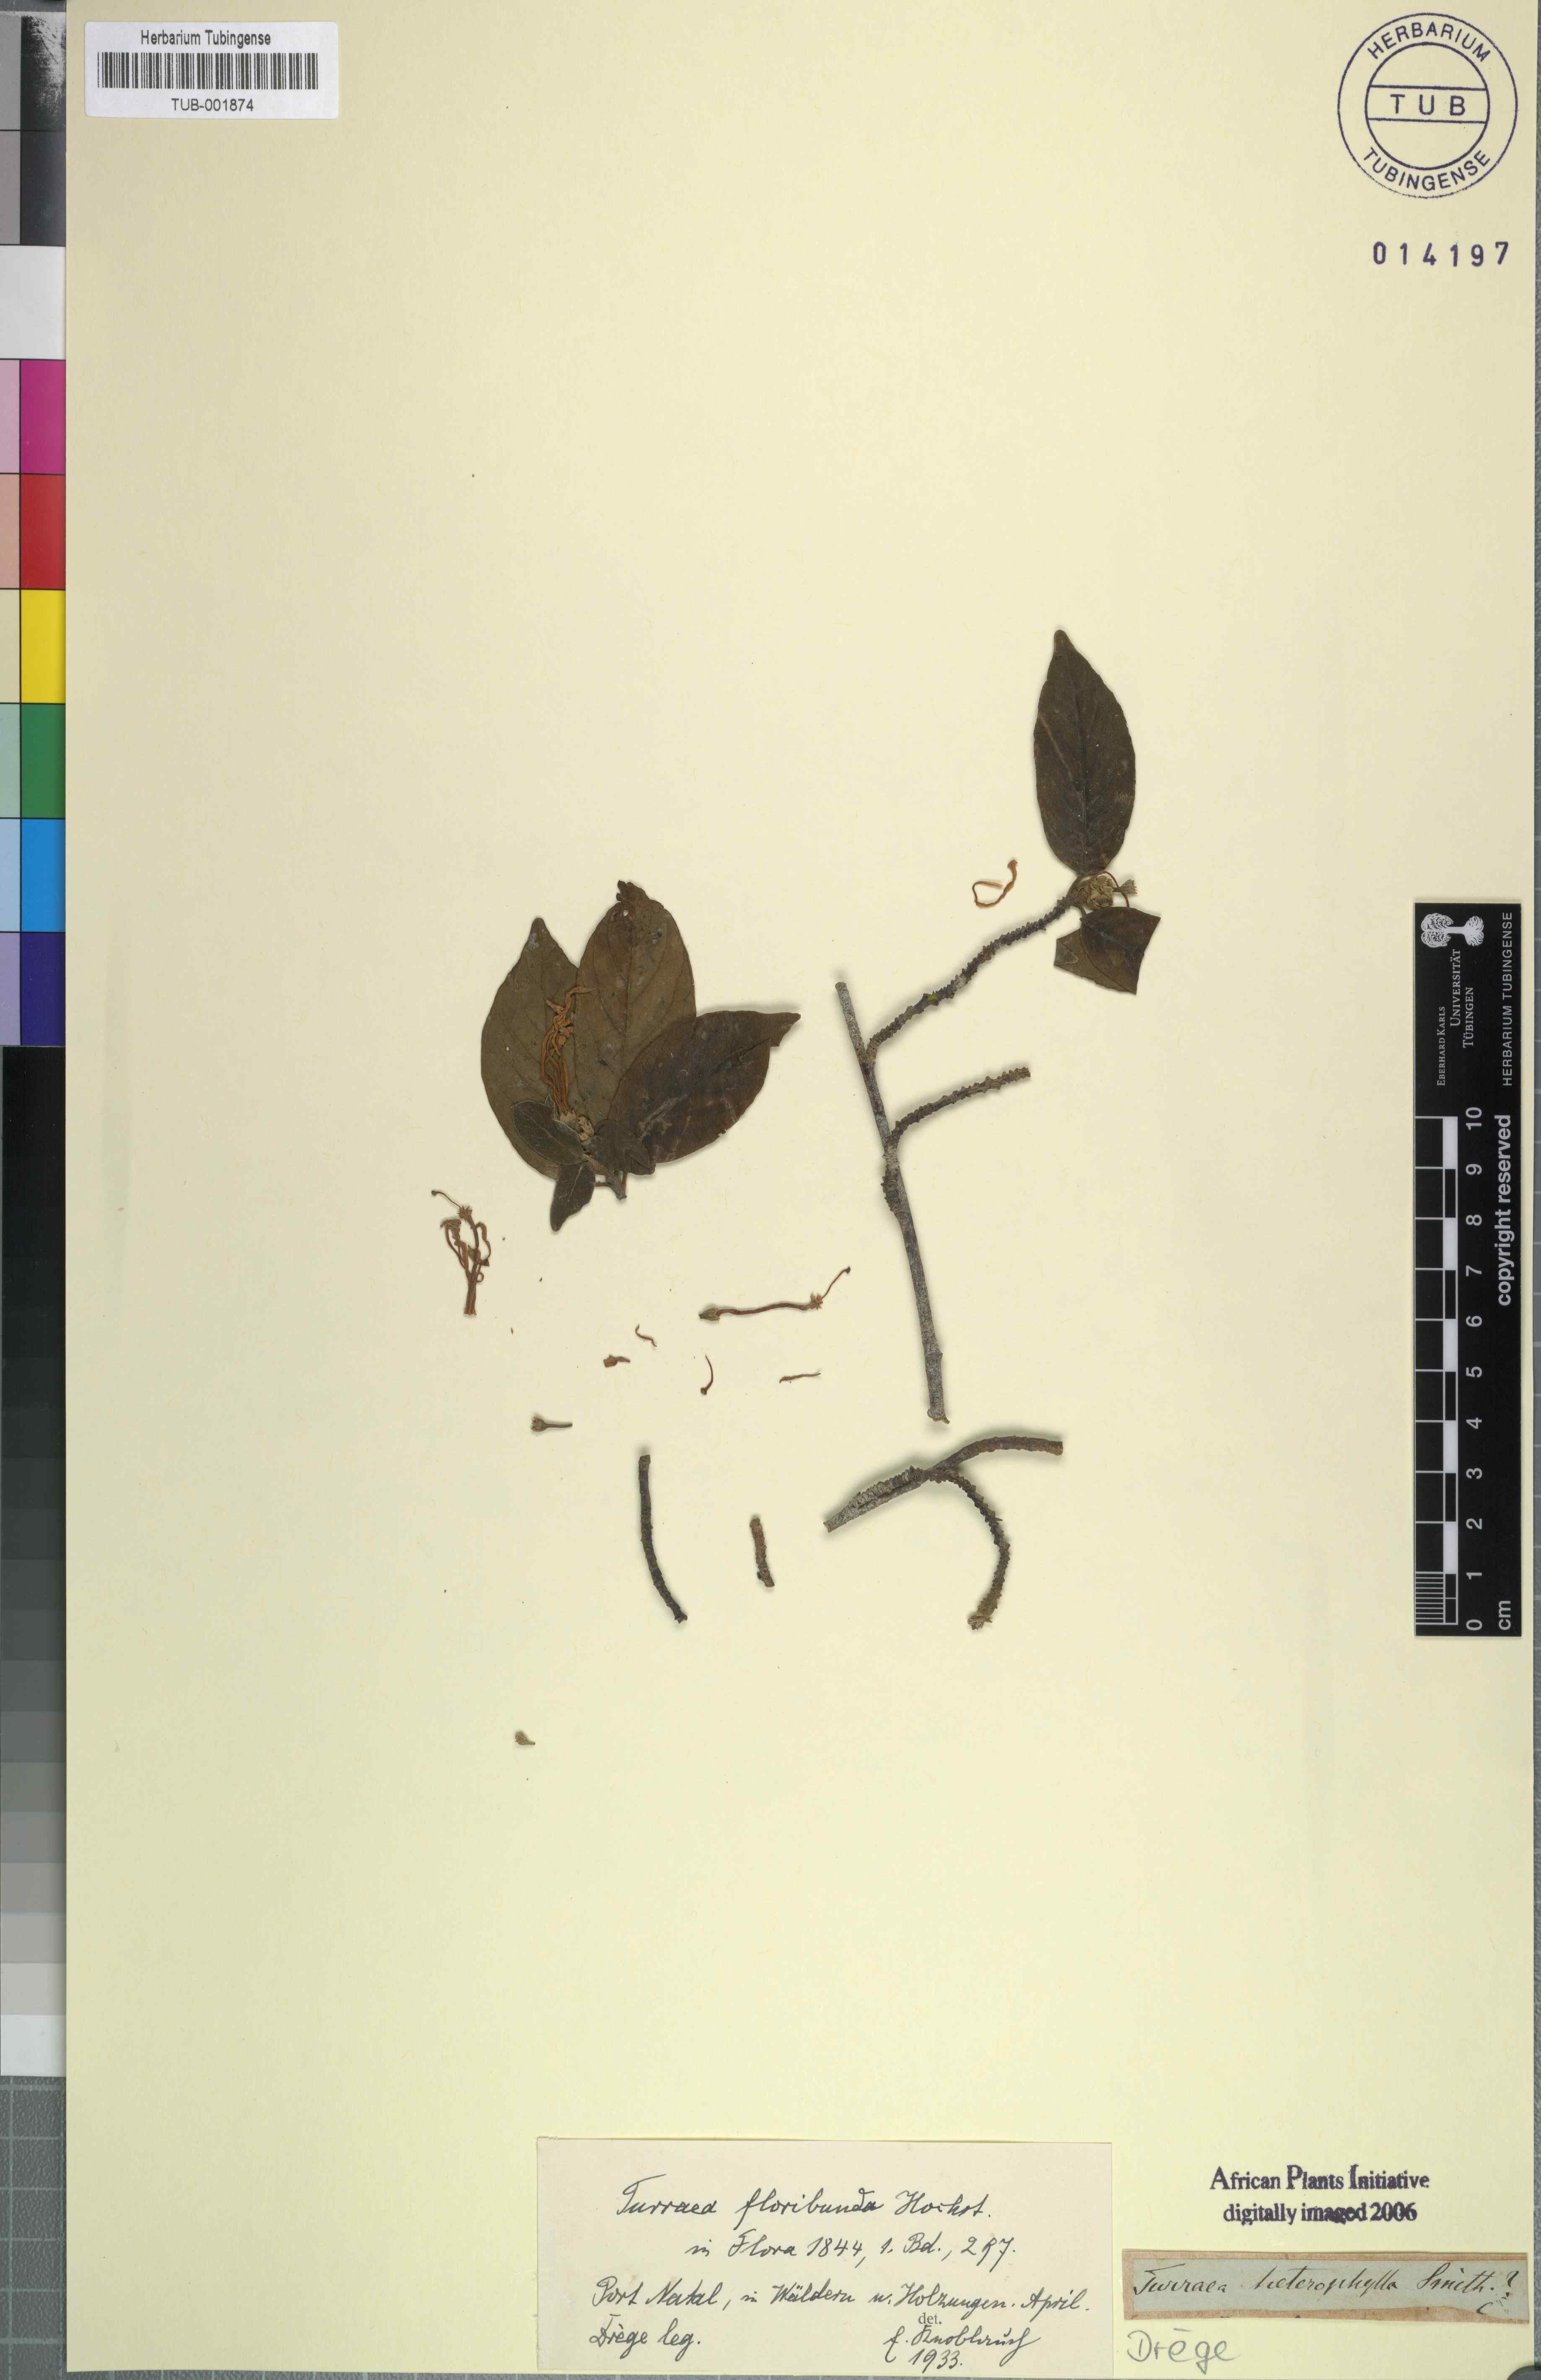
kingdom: Plantae
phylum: Tracheophyta
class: Magnoliopsida
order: Sapindales
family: Meliaceae
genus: Turraea
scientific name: Turraea floribunda
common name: Honeysuckle tree
